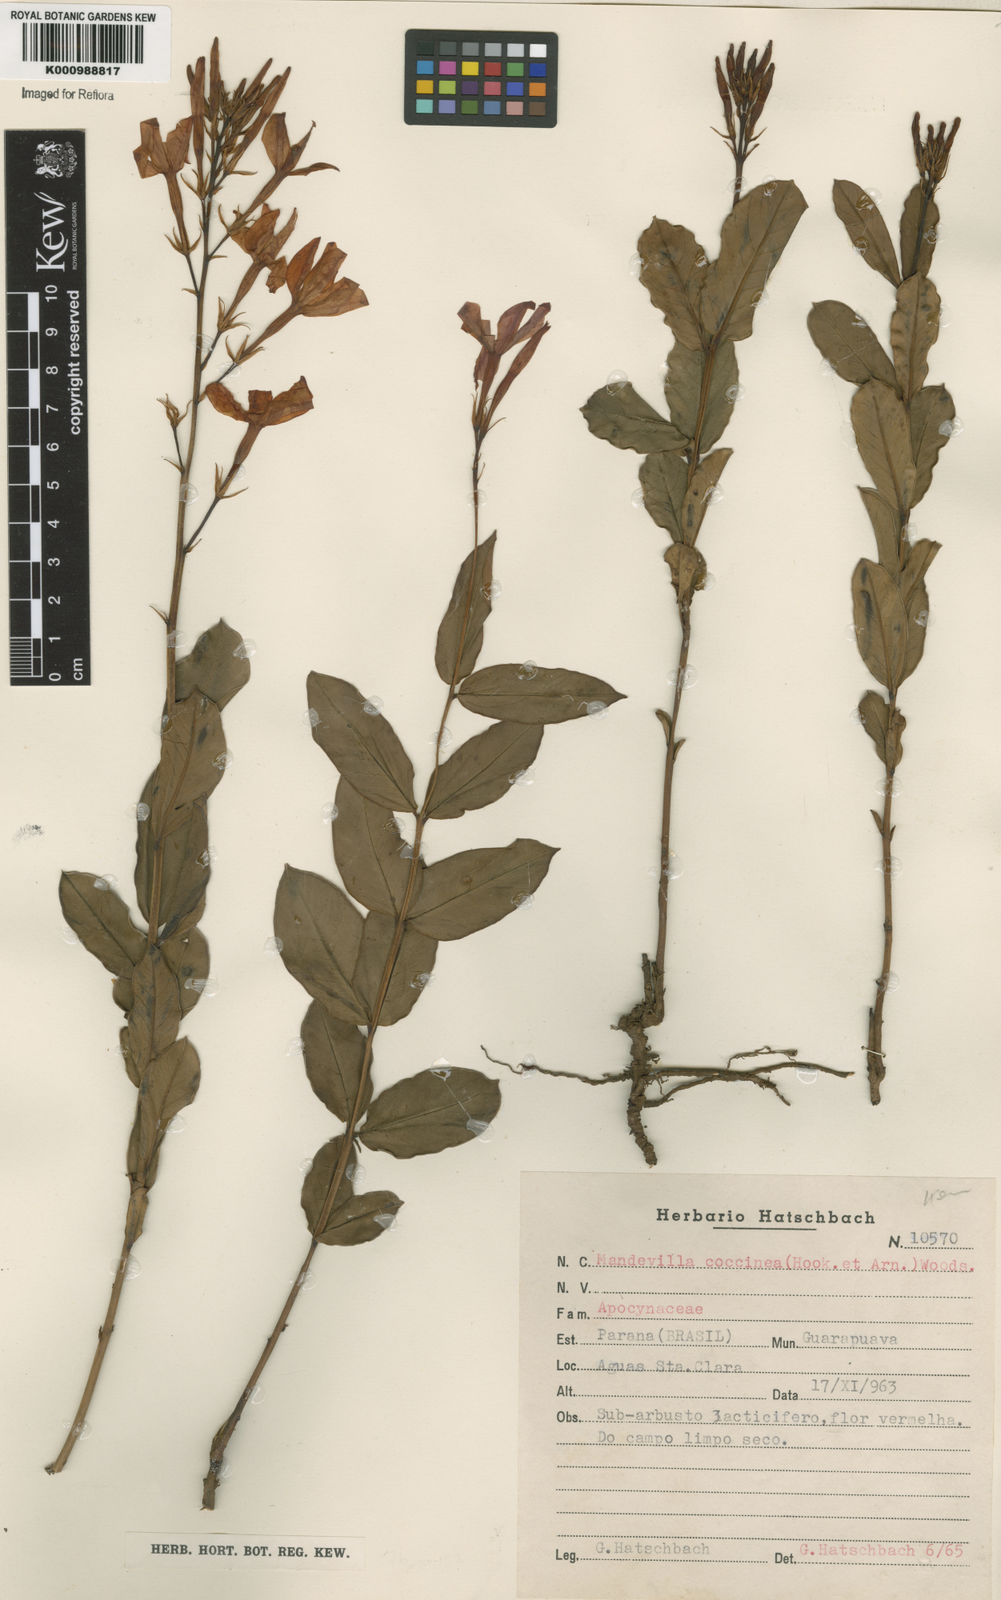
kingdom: Plantae
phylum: Tracheophyta
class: Magnoliopsida
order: Gentianales
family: Apocynaceae
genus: Mandevilla
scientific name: Mandevilla
